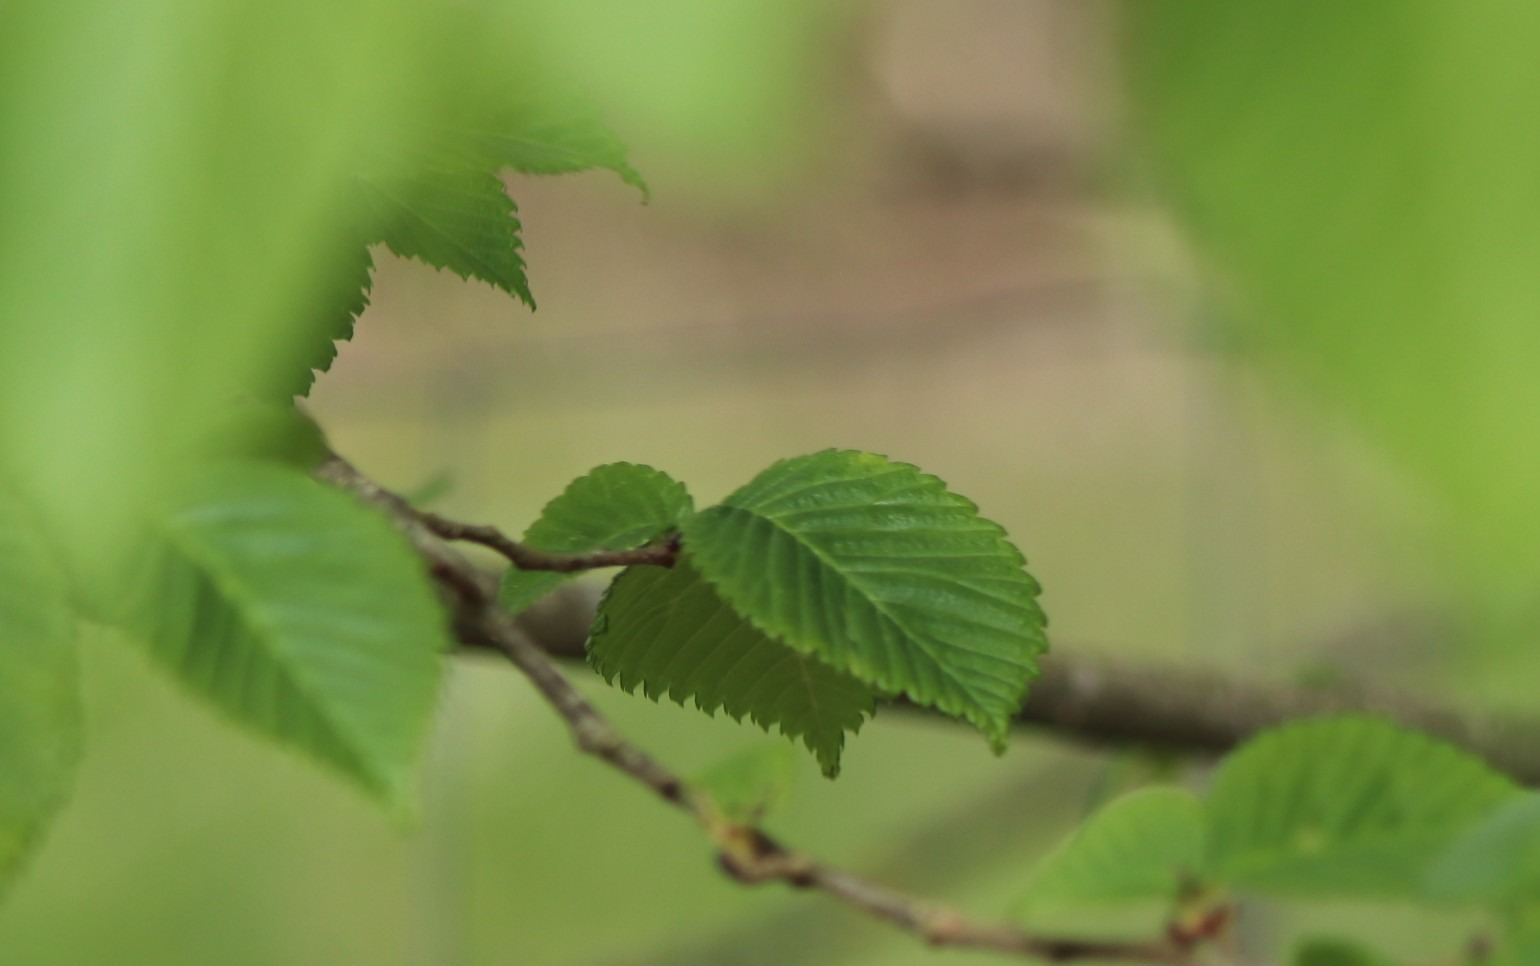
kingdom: Plantae
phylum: Tracheophyta
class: Magnoliopsida
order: Rosales
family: Ulmaceae
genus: Ulmus
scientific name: Ulmus glabra
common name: Skov-elm/storbladet elm
